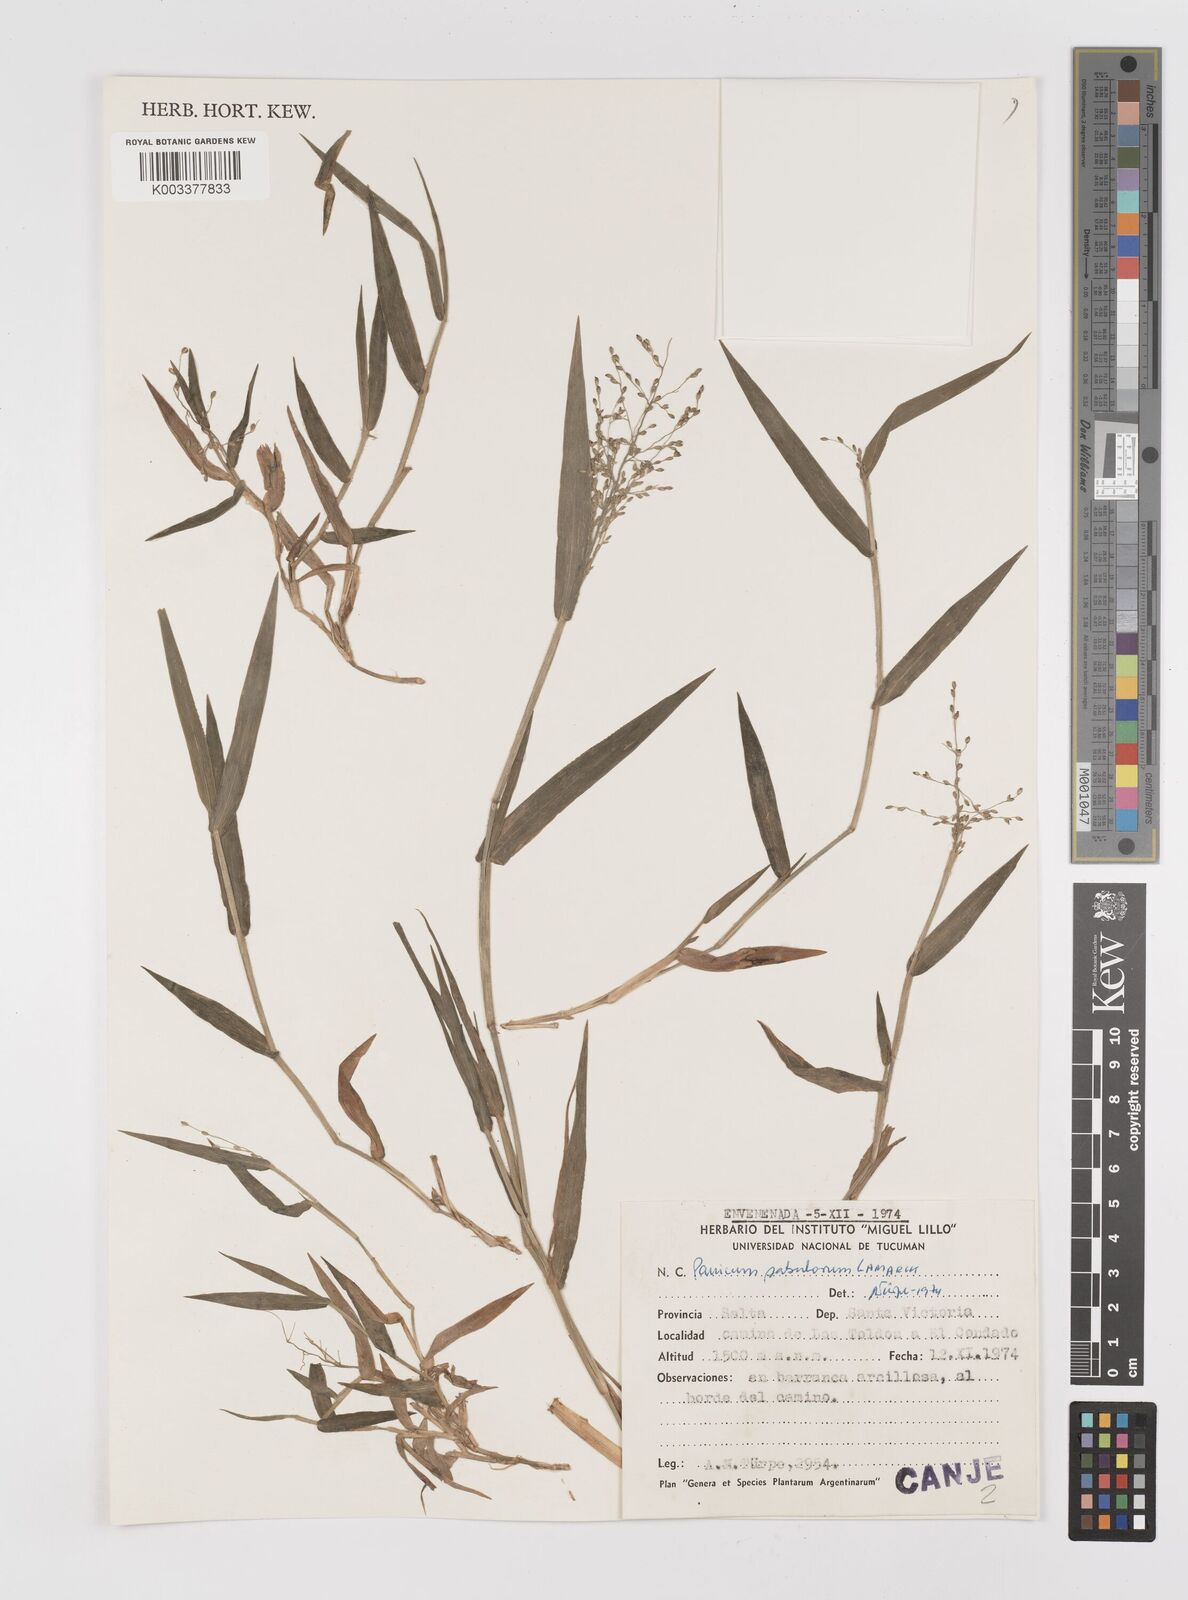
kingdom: Plantae
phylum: Tracheophyta
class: Liliopsida
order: Poales
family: Poaceae
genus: Dichanthelium
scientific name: Dichanthelium sabulorum
